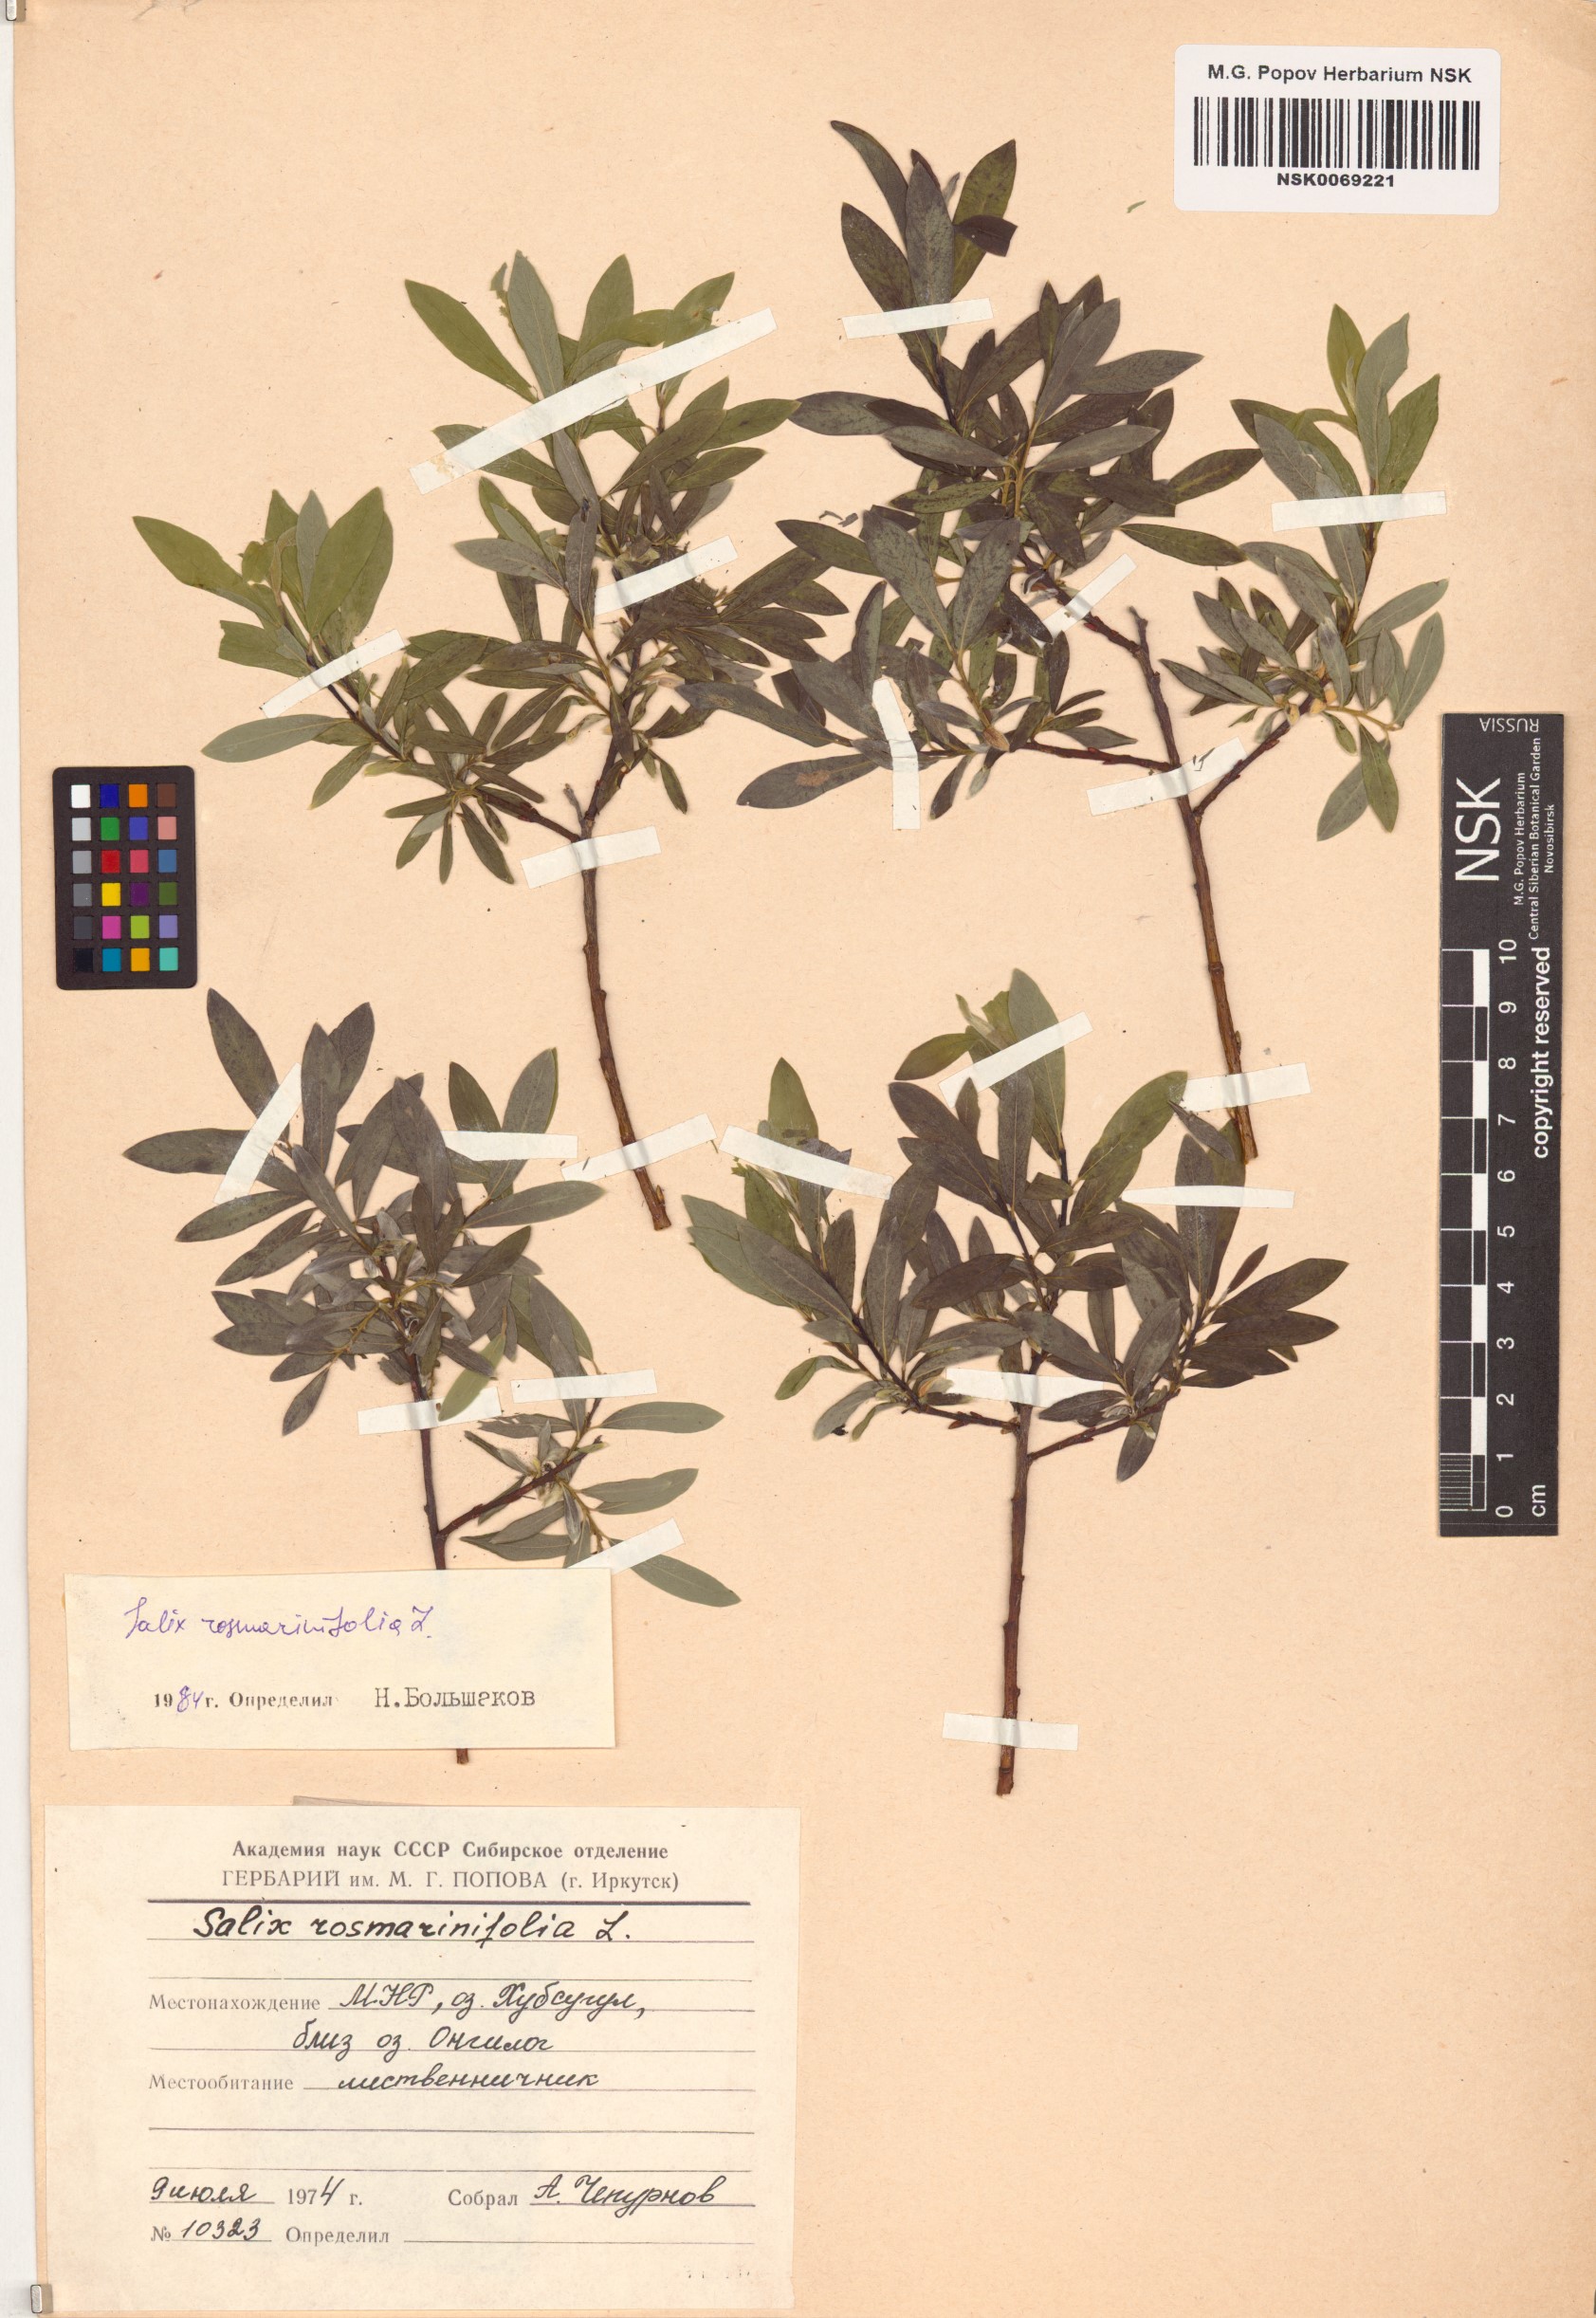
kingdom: Plantae
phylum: Tracheophyta
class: Magnoliopsida
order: Malpighiales
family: Salicaceae
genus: Salix
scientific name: Salix rosmarinifolia
